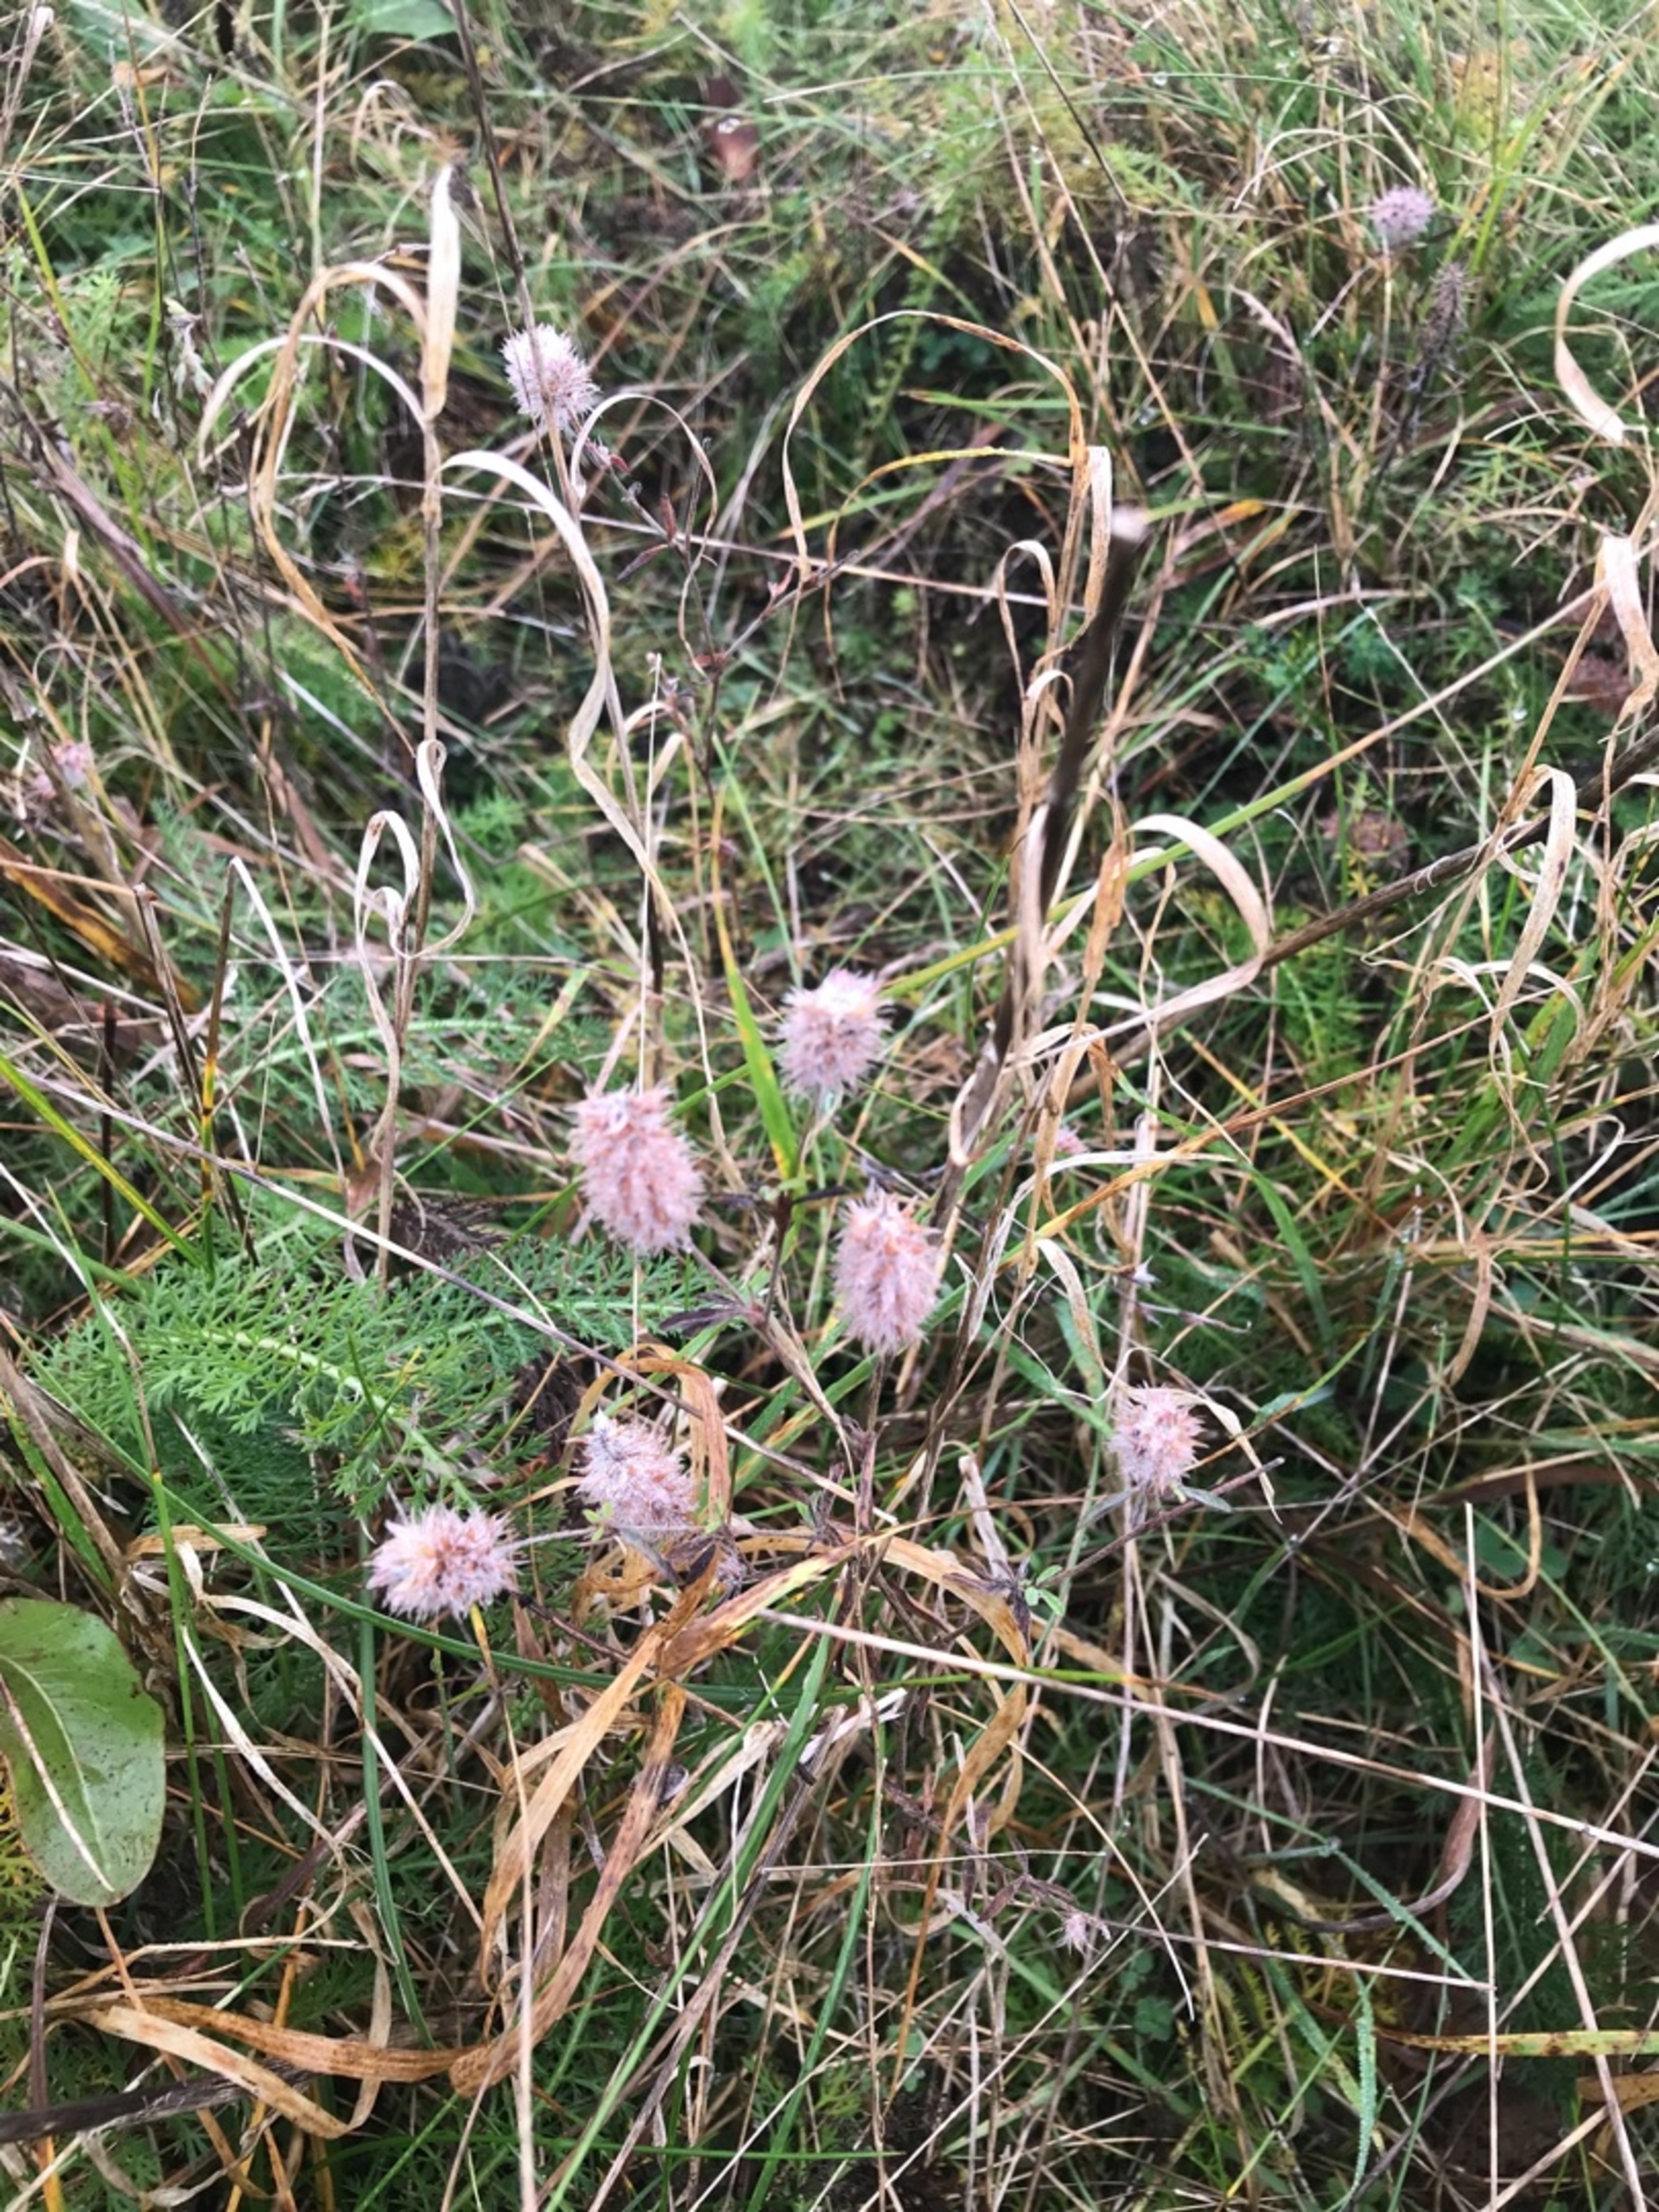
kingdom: Plantae
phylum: Tracheophyta
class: Magnoliopsida
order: Fabales
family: Fabaceae
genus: Trifolium
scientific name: Trifolium arvense
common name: Hare-kløver
